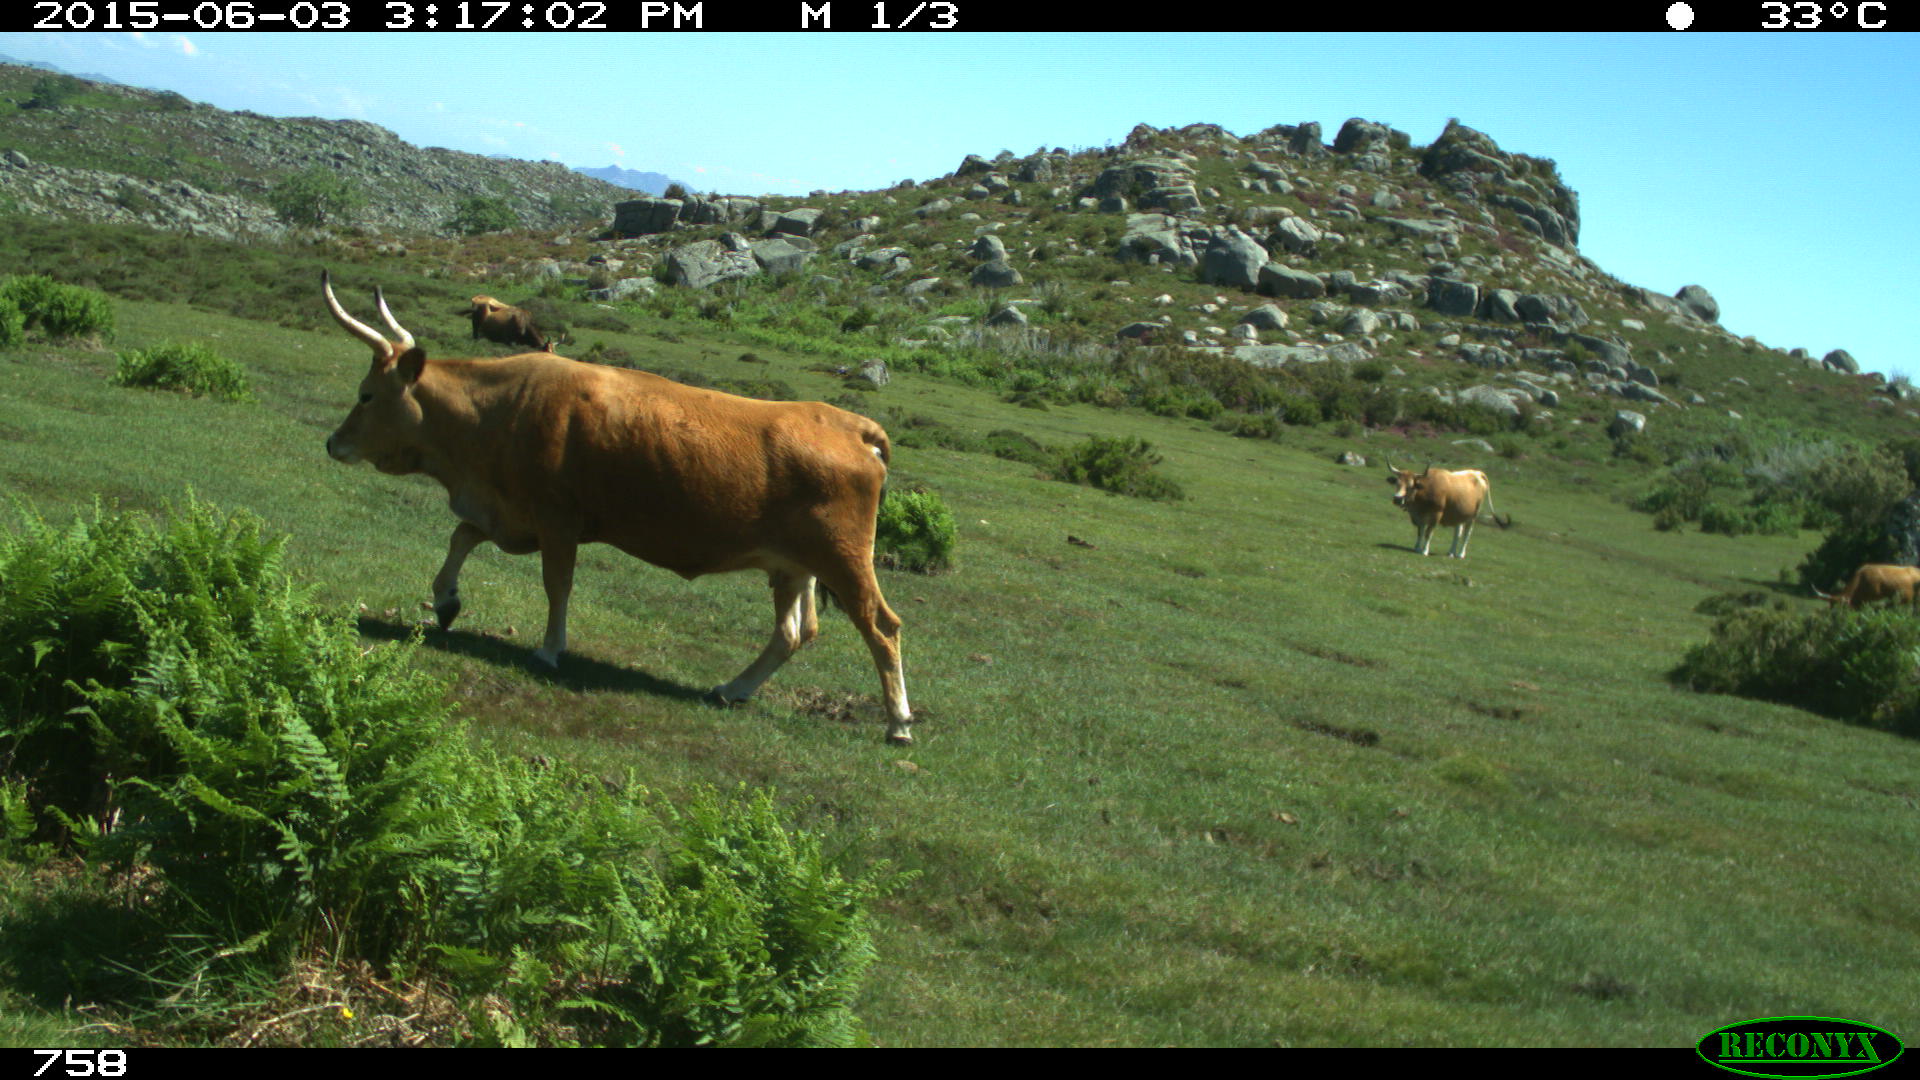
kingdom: Animalia
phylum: Chordata
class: Mammalia
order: Artiodactyla
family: Bovidae
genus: Bos
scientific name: Bos taurus
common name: Domesticated cattle
